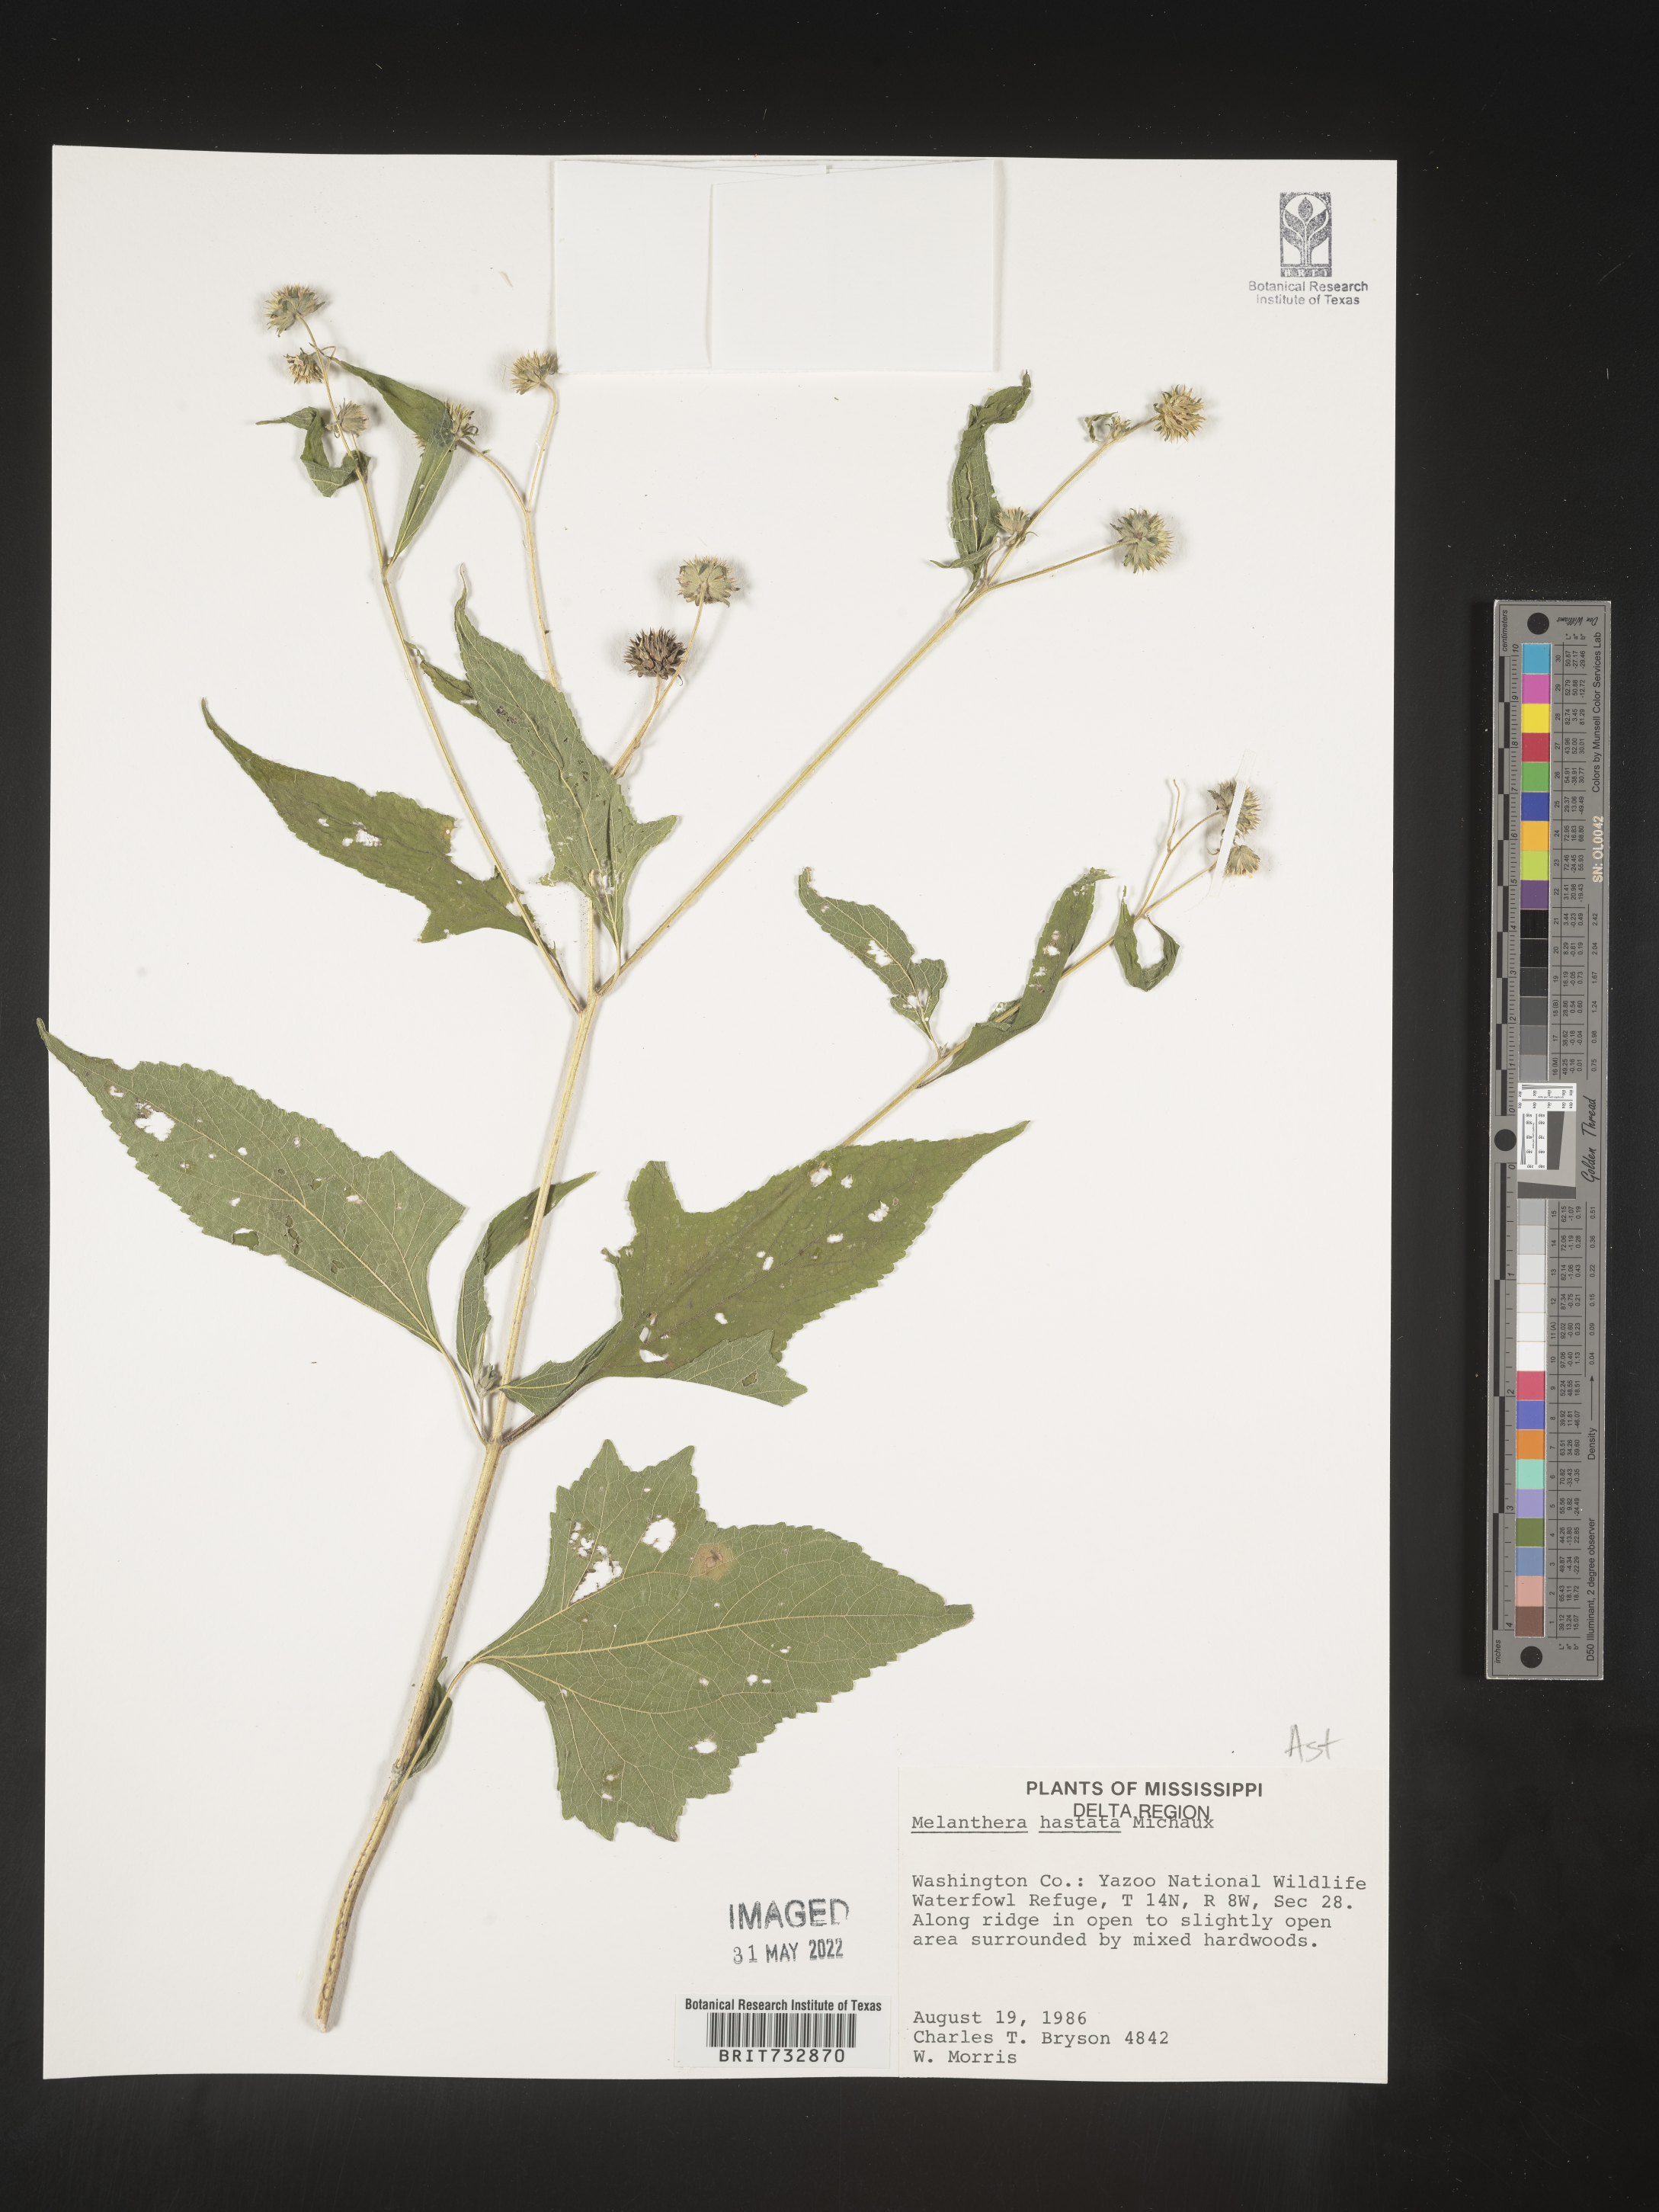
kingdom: Plantae
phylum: Tracheophyta
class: Magnoliopsida
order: Asterales
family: Asteraceae
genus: Melanthera
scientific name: Melanthera nivea
